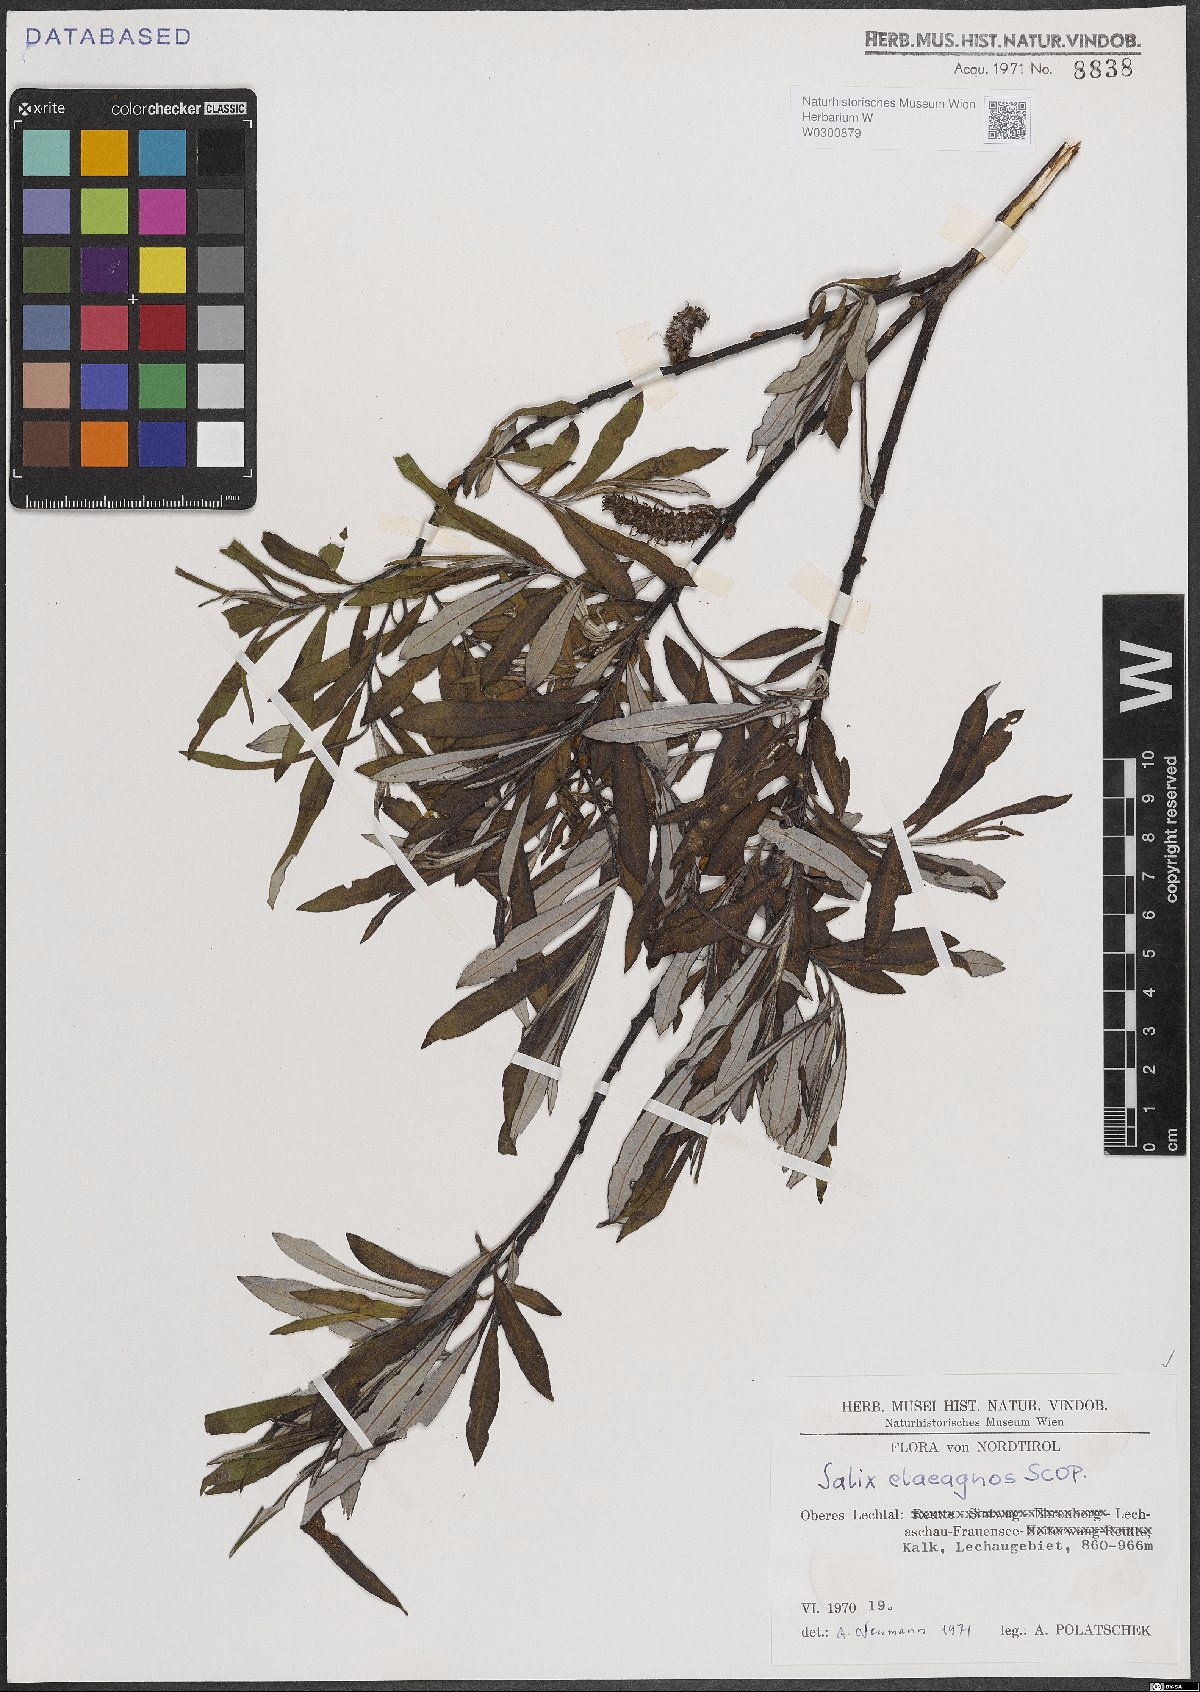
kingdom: Plantae
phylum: Tracheophyta
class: Magnoliopsida
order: Malpighiales
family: Salicaceae
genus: Salix
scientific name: Salix eleagnos
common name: Elaeagnus willow
